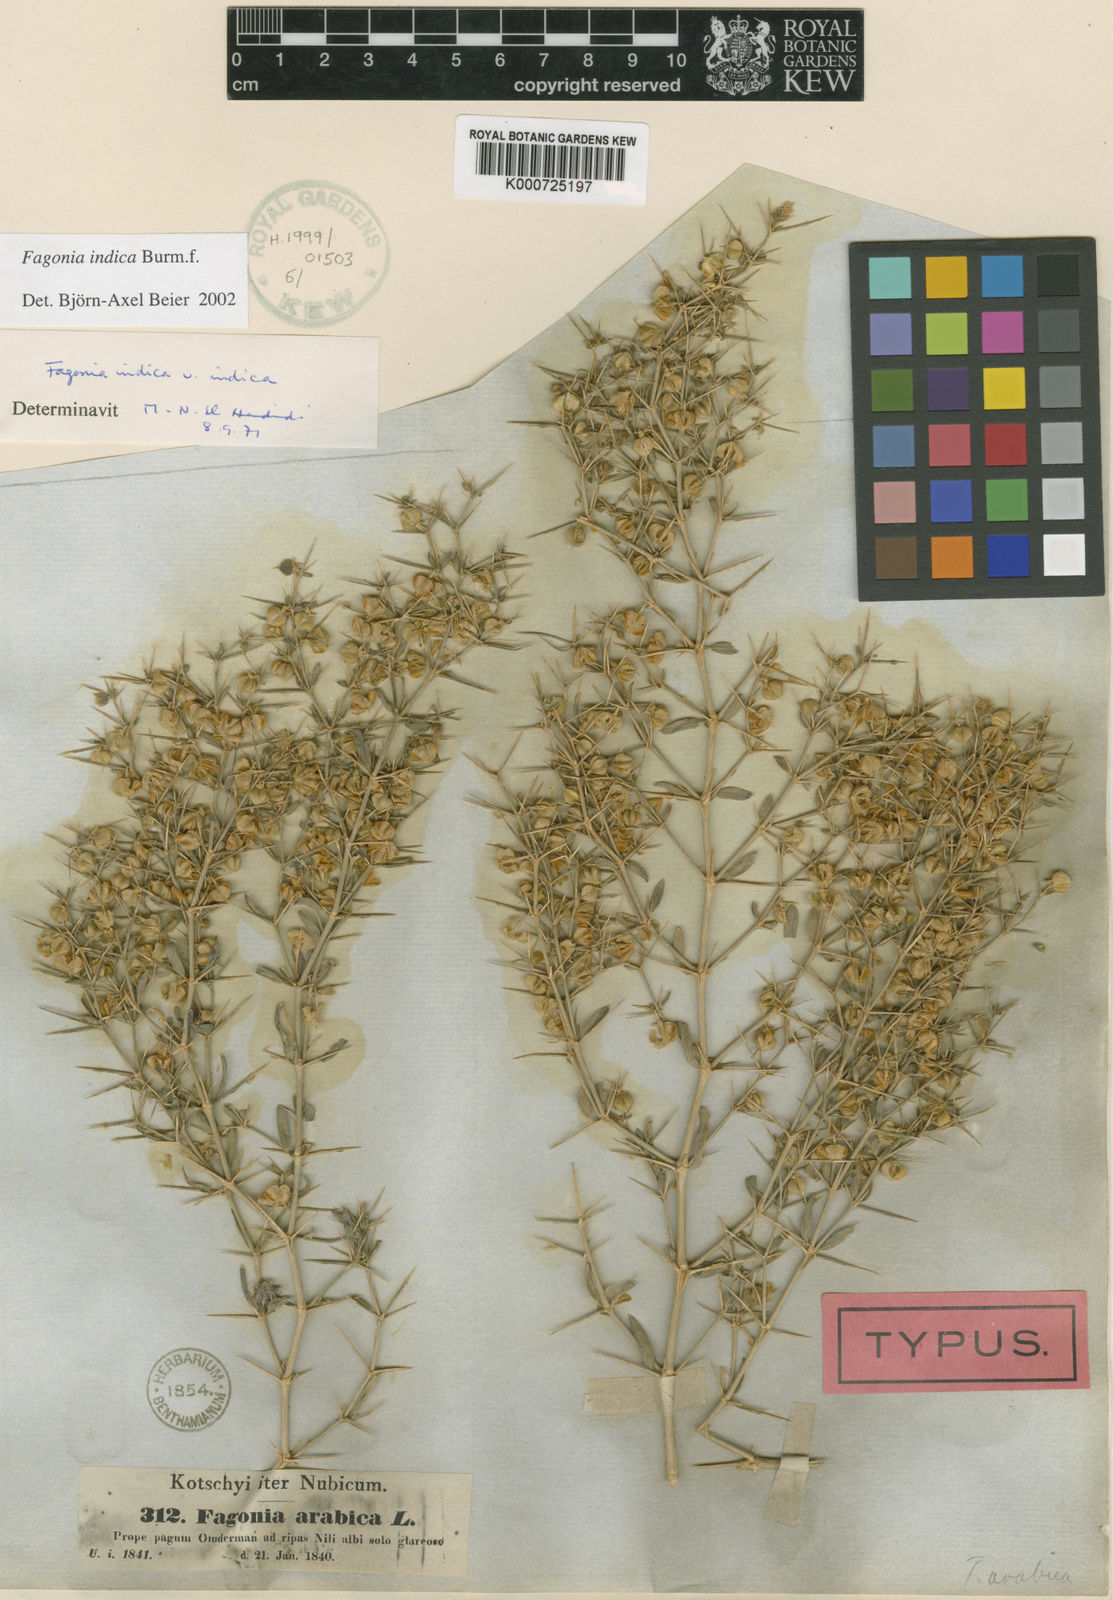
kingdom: Plantae
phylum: Tracheophyta
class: Magnoliopsida
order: Zygophyllales
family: Zygophyllaceae
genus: Fagonia
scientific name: Fagonia indica
